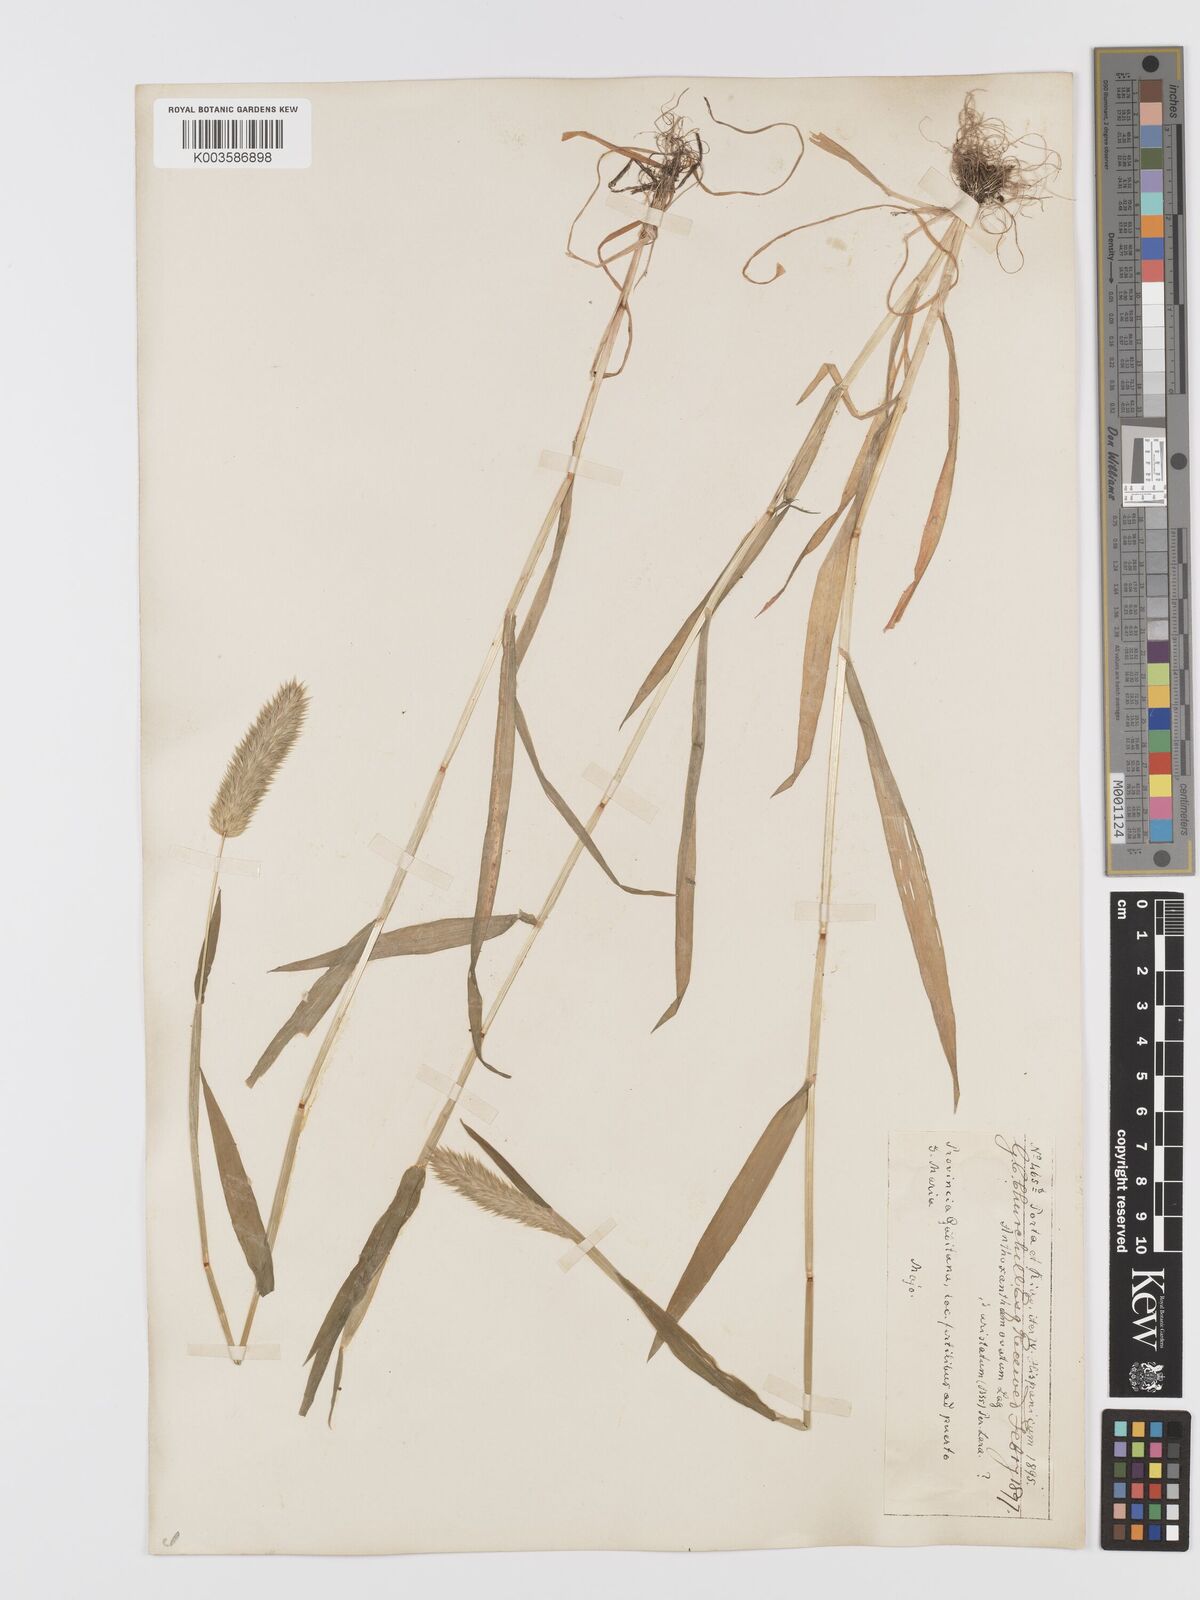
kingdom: Plantae
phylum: Tracheophyta
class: Liliopsida
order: Poales
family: Poaceae
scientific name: Poaceae
